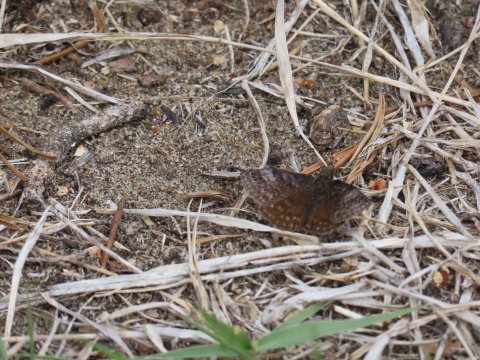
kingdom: Animalia
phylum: Arthropoda
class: Insecta
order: Lepidoptera
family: Hesperiidae
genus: Erynnis
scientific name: Erynnis icelus
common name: Dreamy Duskywing
